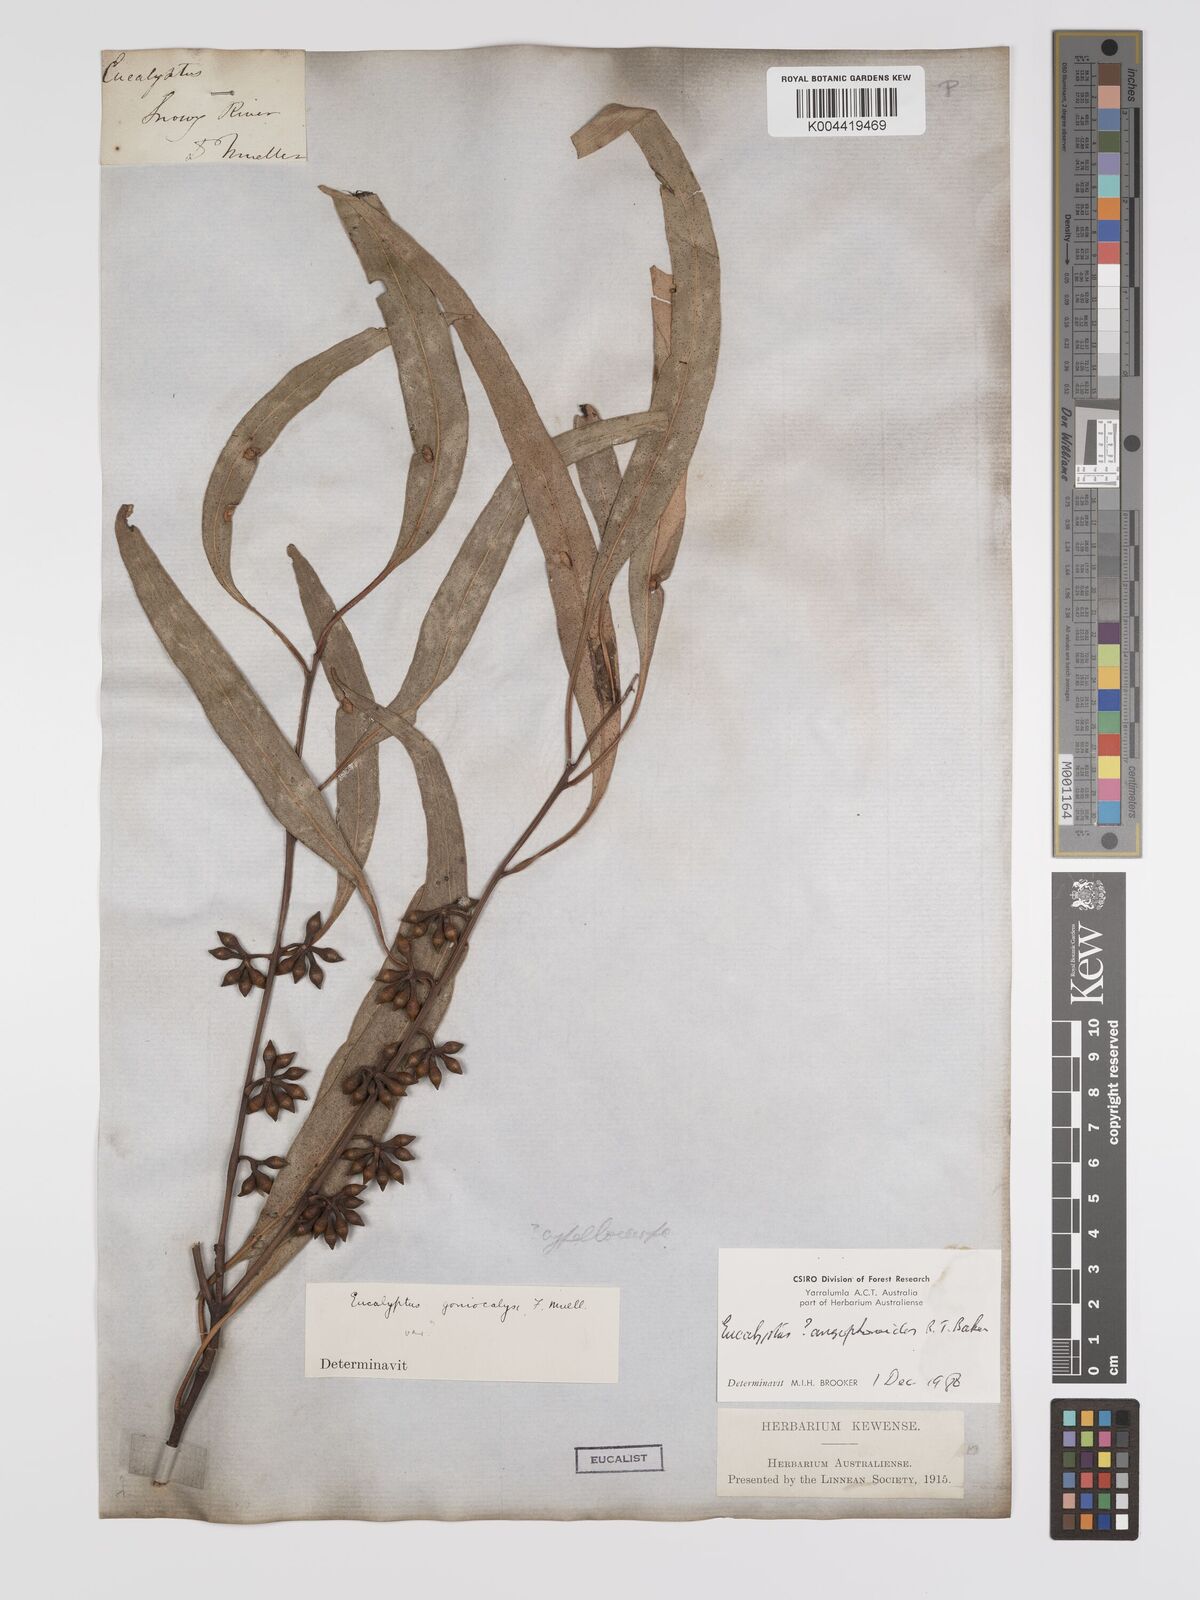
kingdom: Plantae
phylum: Tracheophyta
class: Magnoliopsida
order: Myrtales
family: Myrtaceae
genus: Eucalyptus
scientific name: Eucalyptus dunnii
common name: Dunn's white gum
